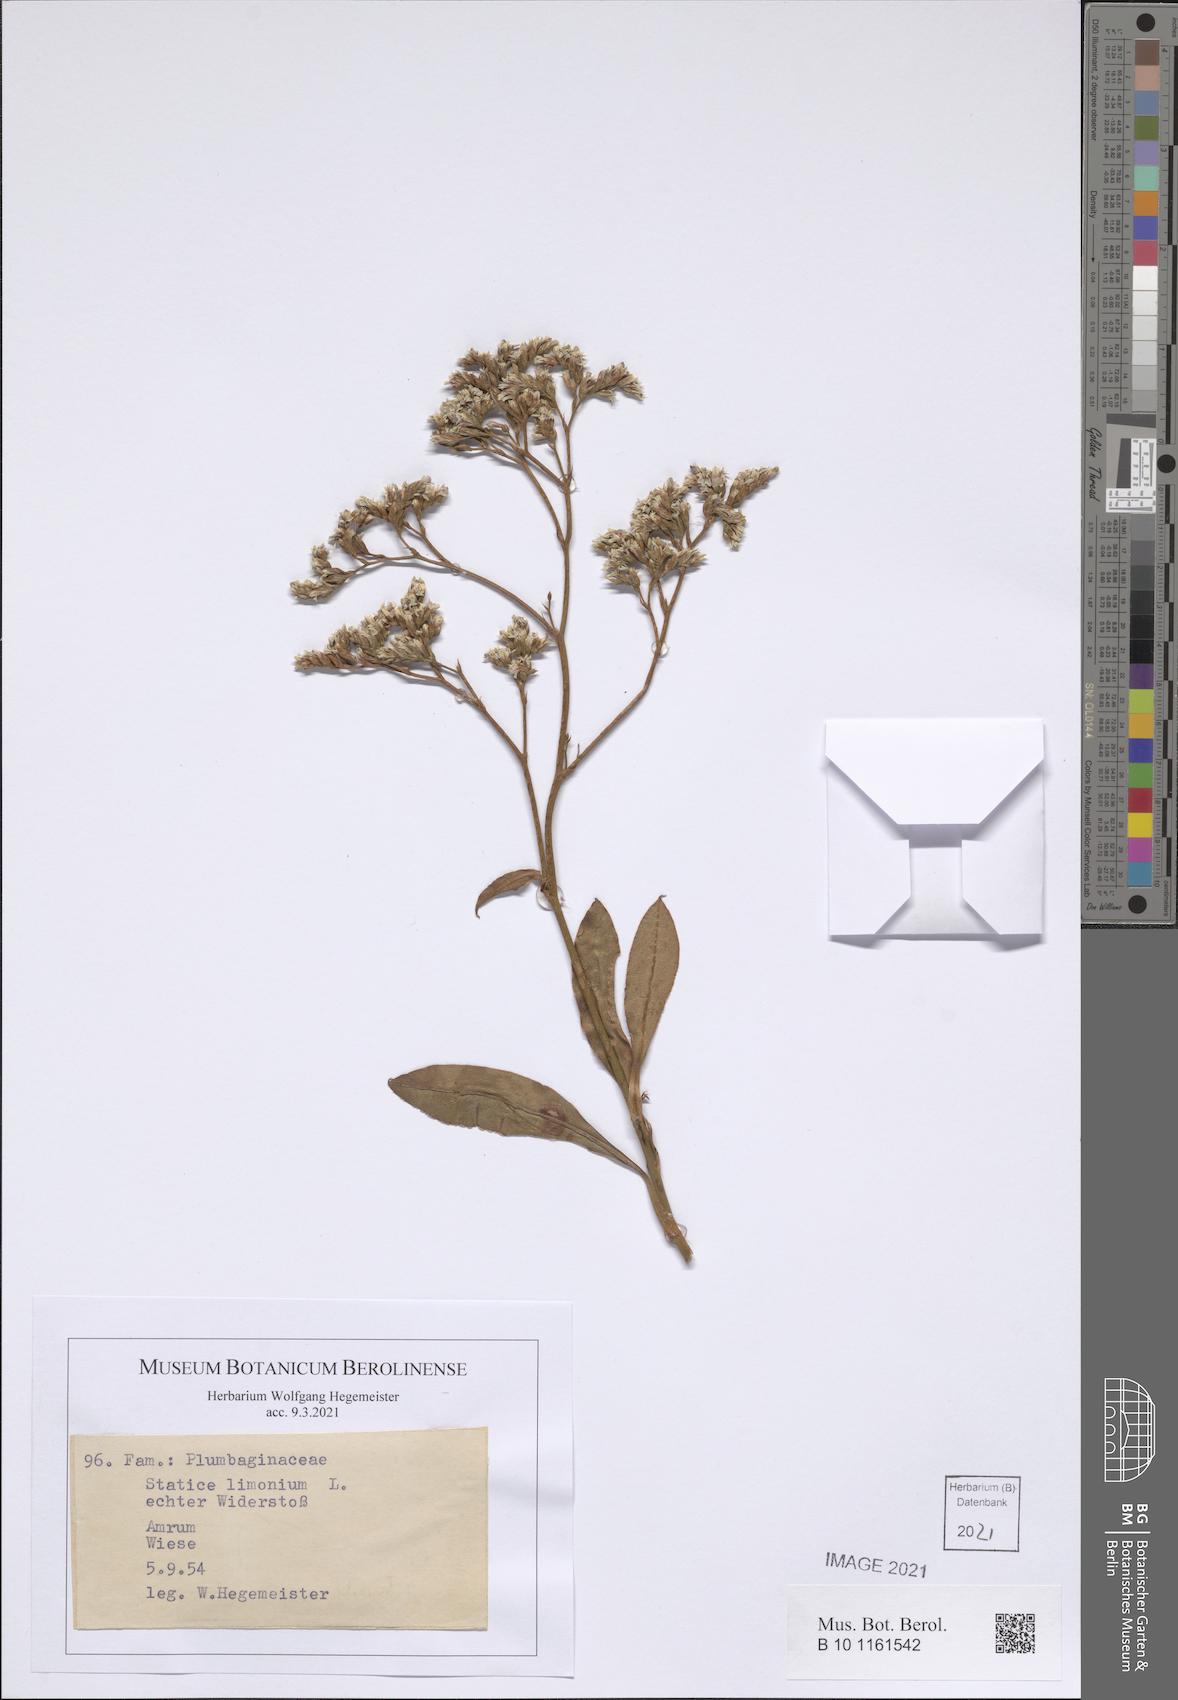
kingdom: Plantae
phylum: Tracheophyta
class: Magnoliopsida
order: Caryophyllales
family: Plumbaginaceae
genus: Limonium
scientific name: Limonium vulgare
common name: Common sea-lavender
